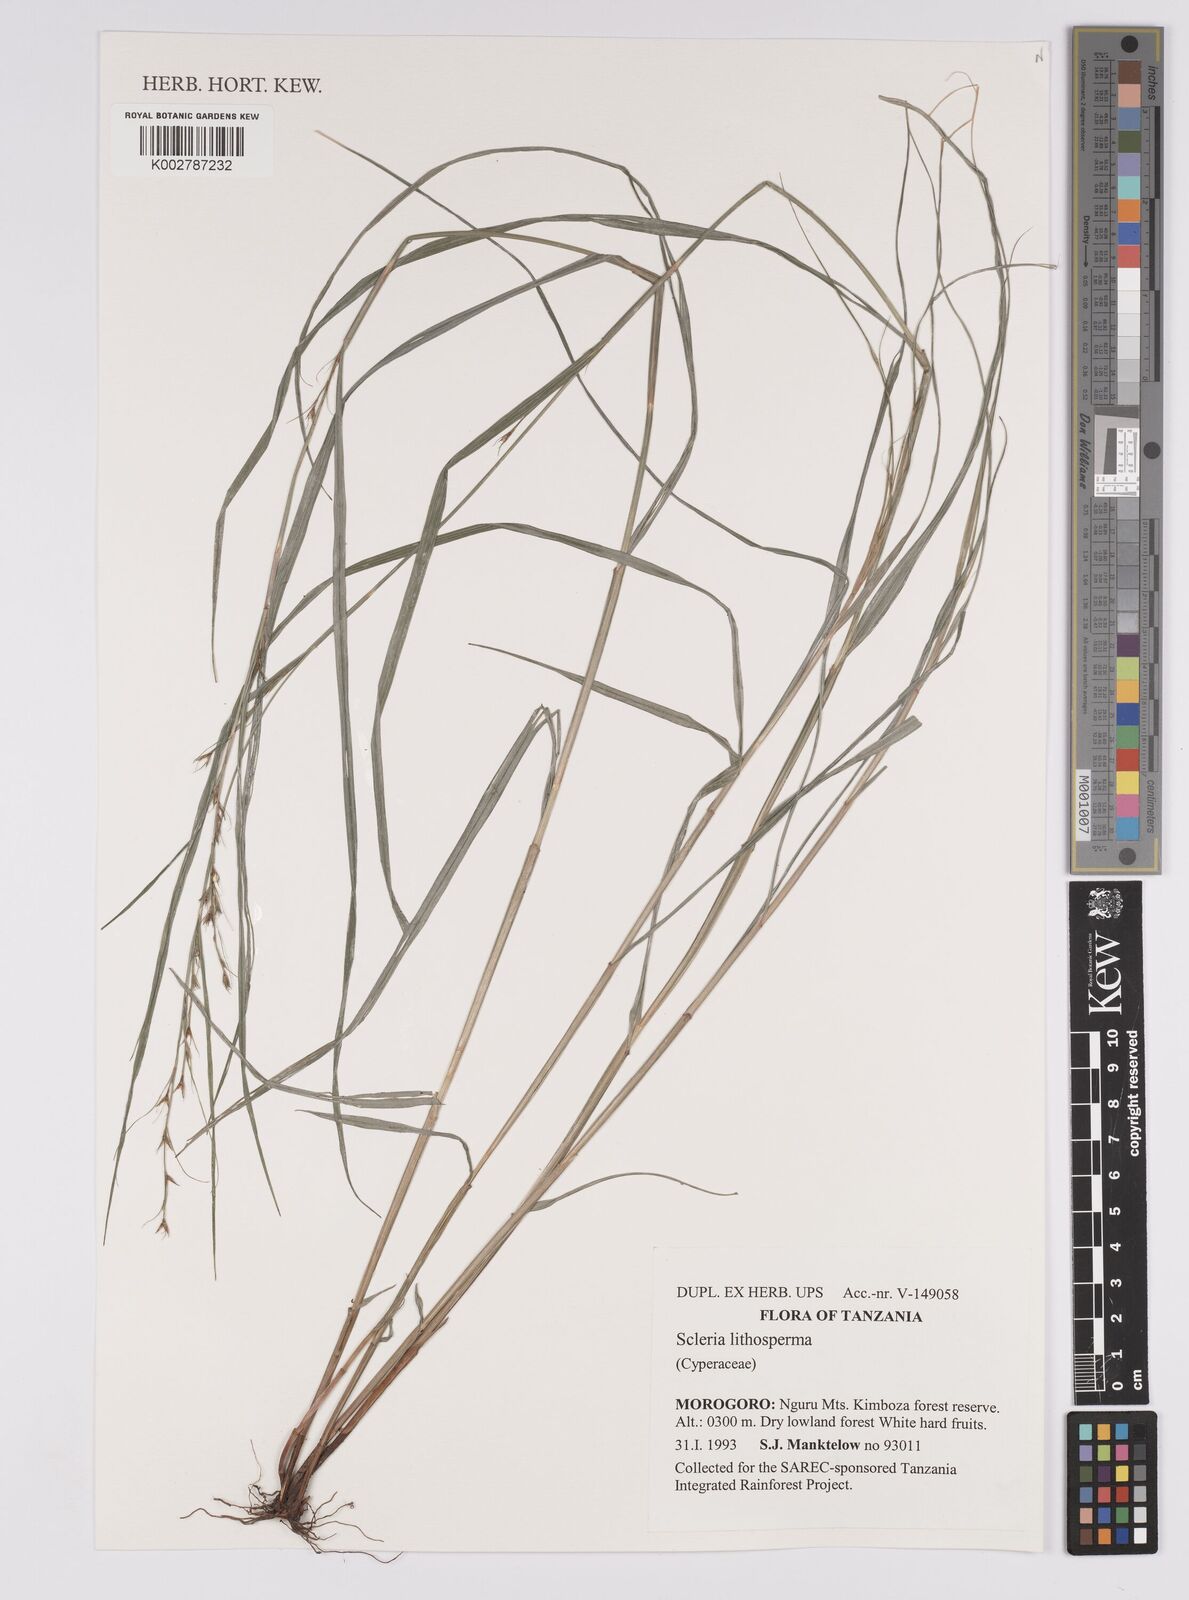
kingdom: Plantae
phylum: Tracheophyta
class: Liliopsida
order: Poales
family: Cyperaceae
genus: Scleria
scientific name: Scleria lithosperma
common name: Florida keys nut-rush
